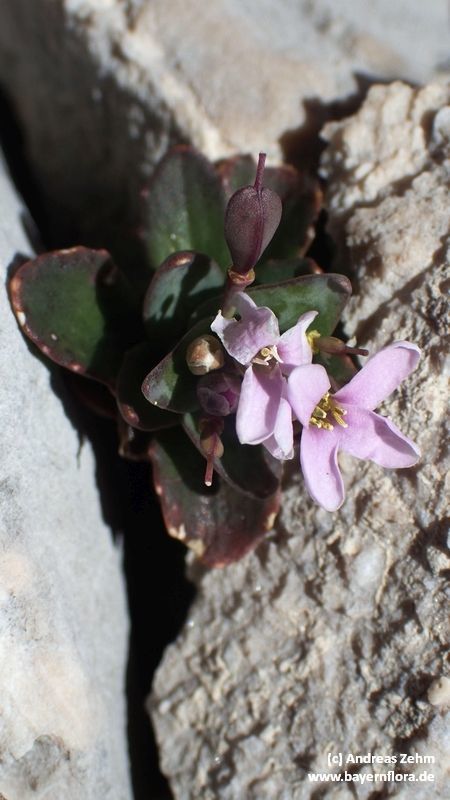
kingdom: Plantae
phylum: Tracheophyta
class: Magnoliopsida
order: Brassicales
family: Brassicaceae
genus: Noccaea
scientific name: Noccaea rotundifolia
